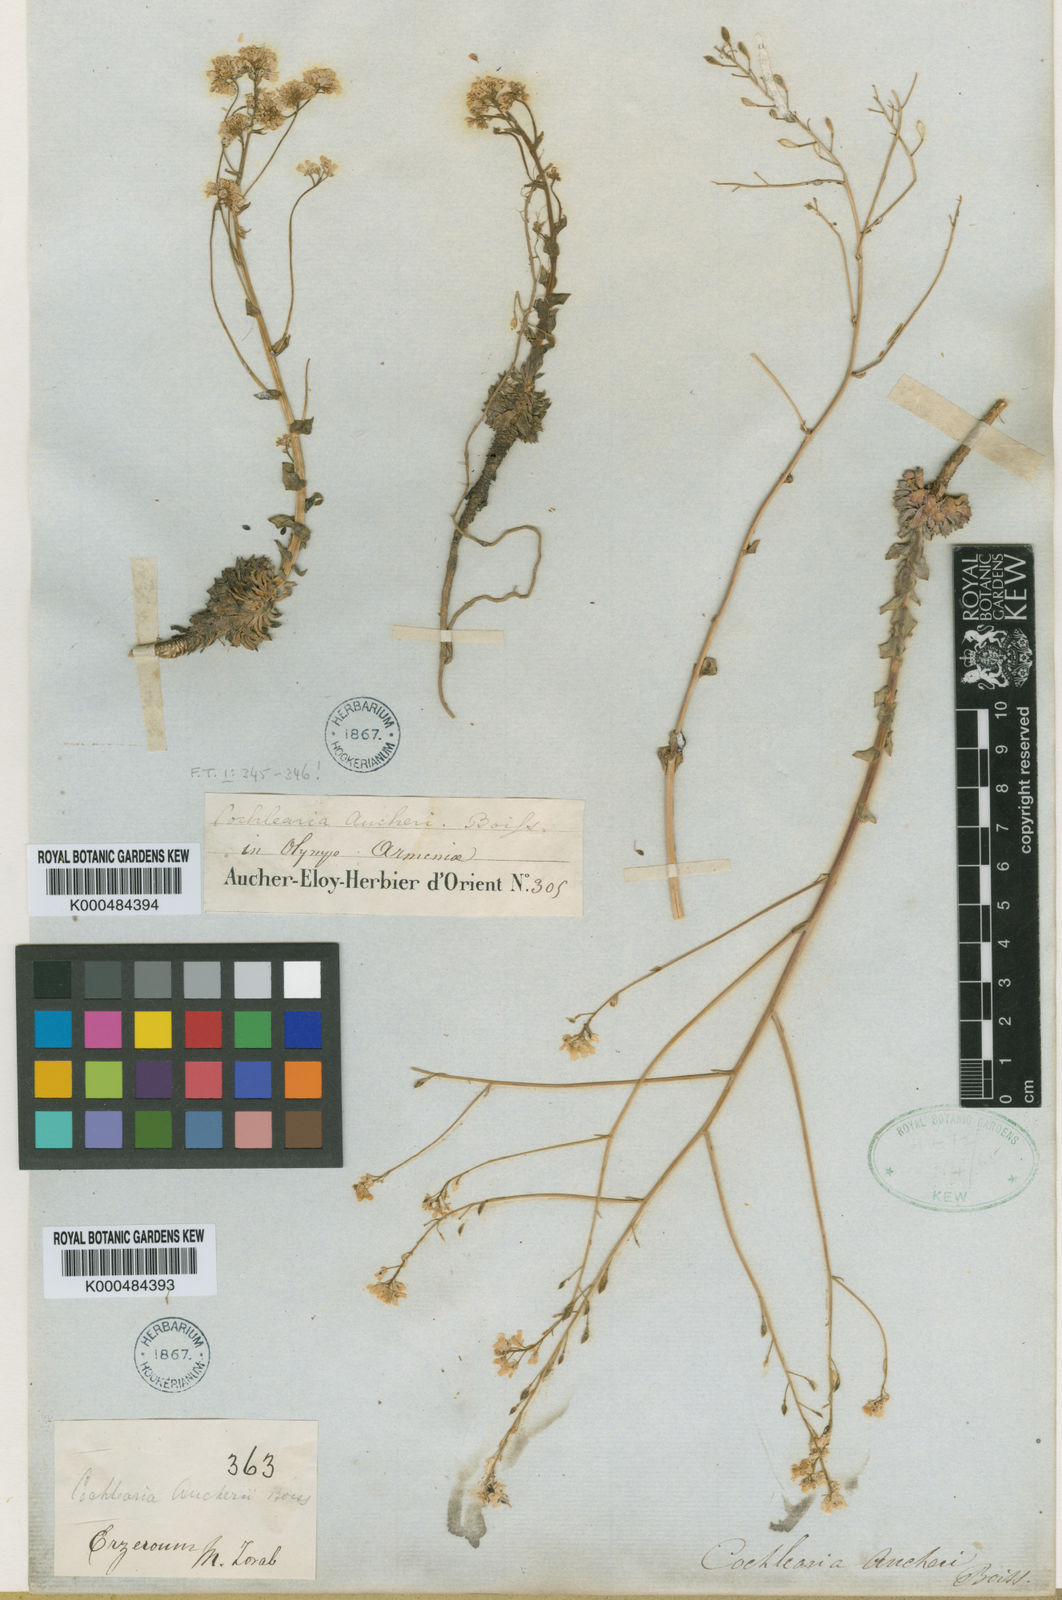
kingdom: Plantae
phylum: Tracheophyta
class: Magnoliopsida
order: Brassicales
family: Brassicaceae
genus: Pseudosempervivum
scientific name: Pseudosempervivum aucheri
